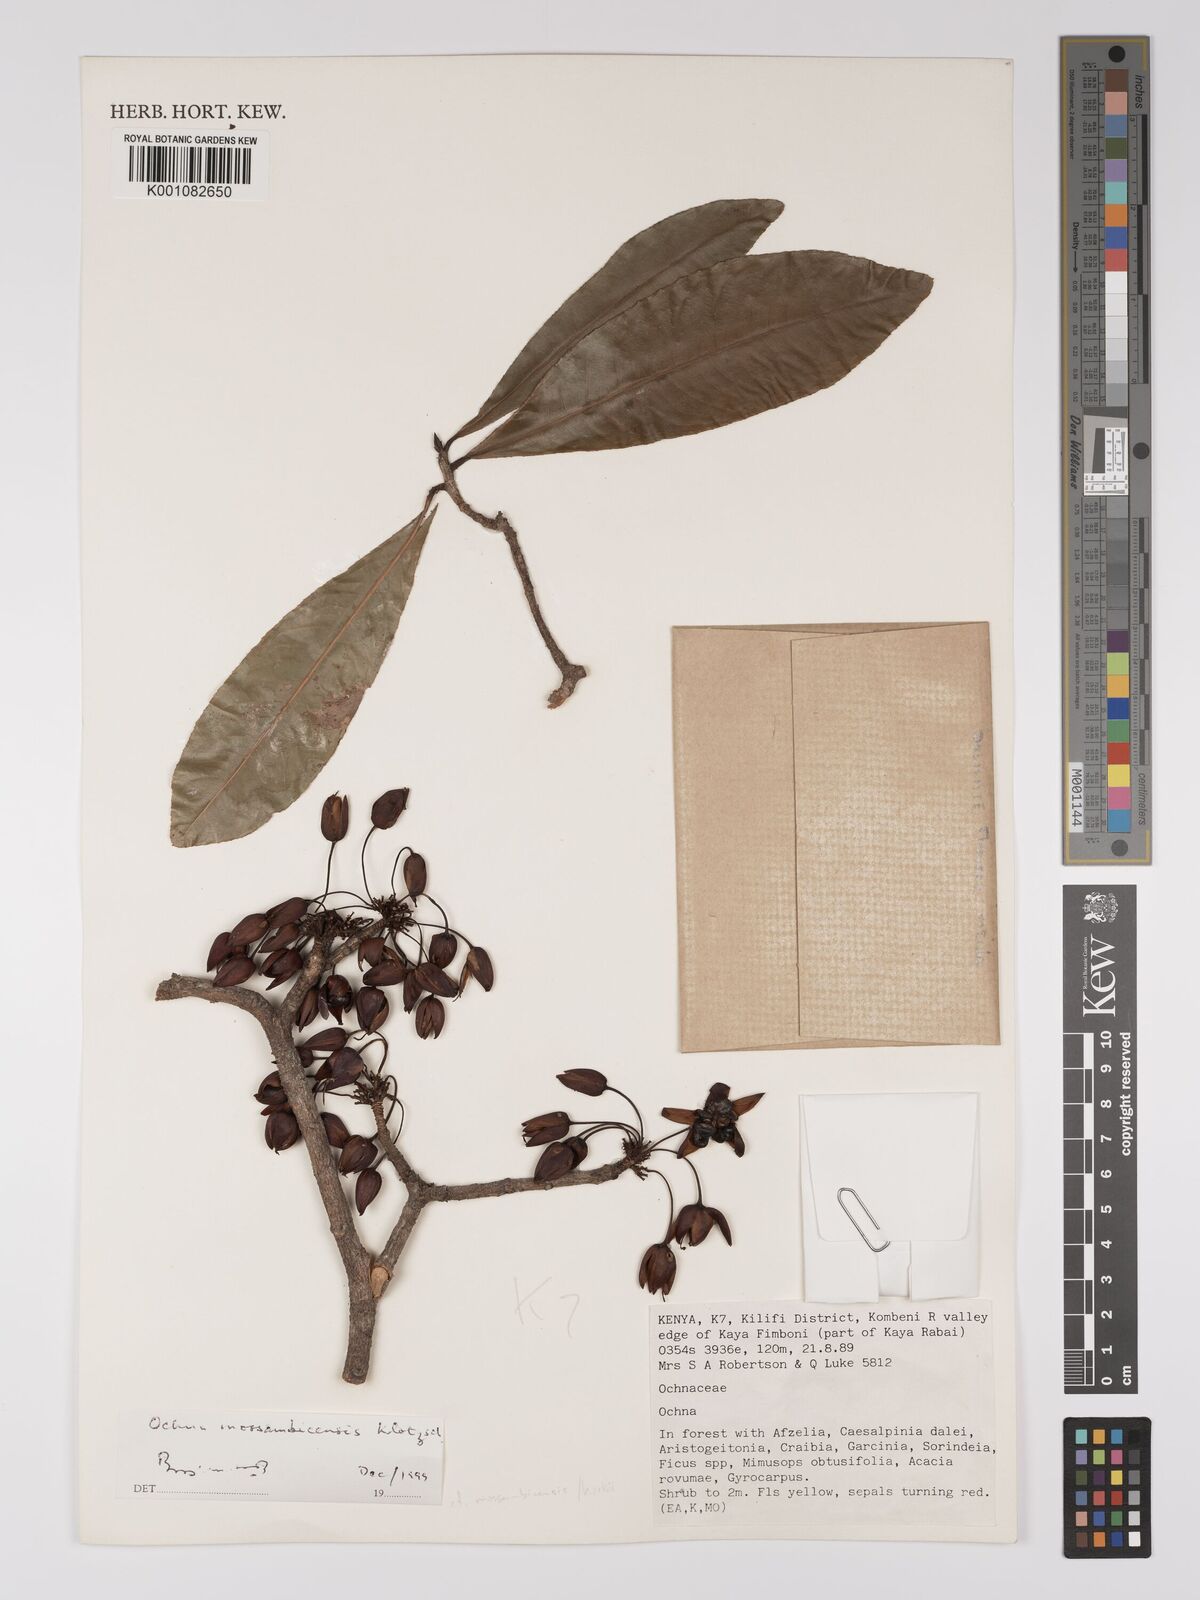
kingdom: Plantae
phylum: Tracheophyta
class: Magnoliopsida
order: Malpighiales
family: Ochnaceae
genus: Ochna
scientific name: Ochna atropurpurea
